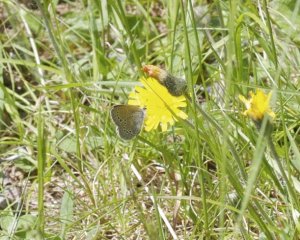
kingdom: Animalia
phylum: Arthropoda
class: Insecta
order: Lepidoptera
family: Lycaenidae
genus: Glaucopsyche
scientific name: Glaucopsyche lygdamus
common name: Silvery Blue
